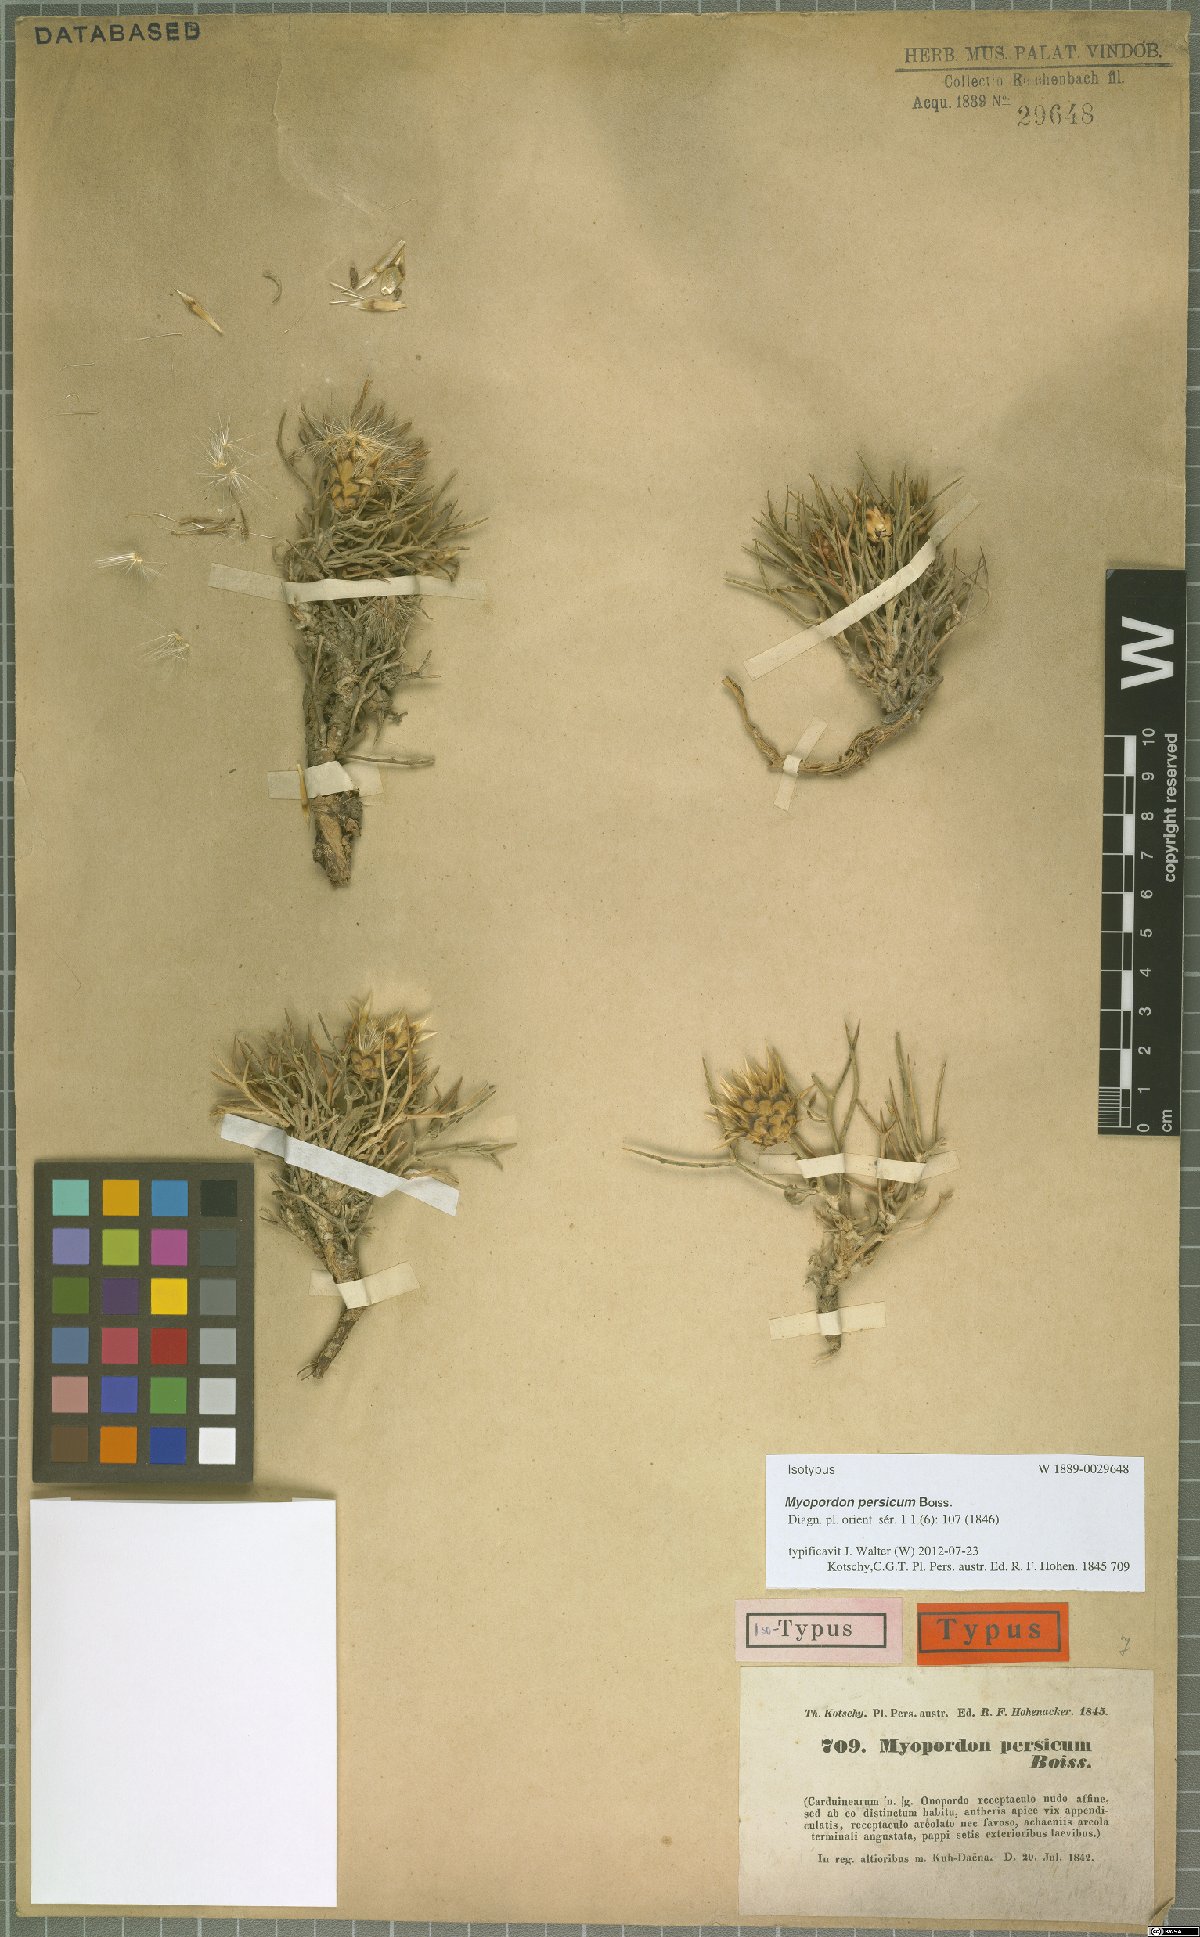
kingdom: Plantae
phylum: Tracheophyta
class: Magnoliopsida
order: Asterales
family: Asteraceae
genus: Myopordon
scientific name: Myopordon persicum
